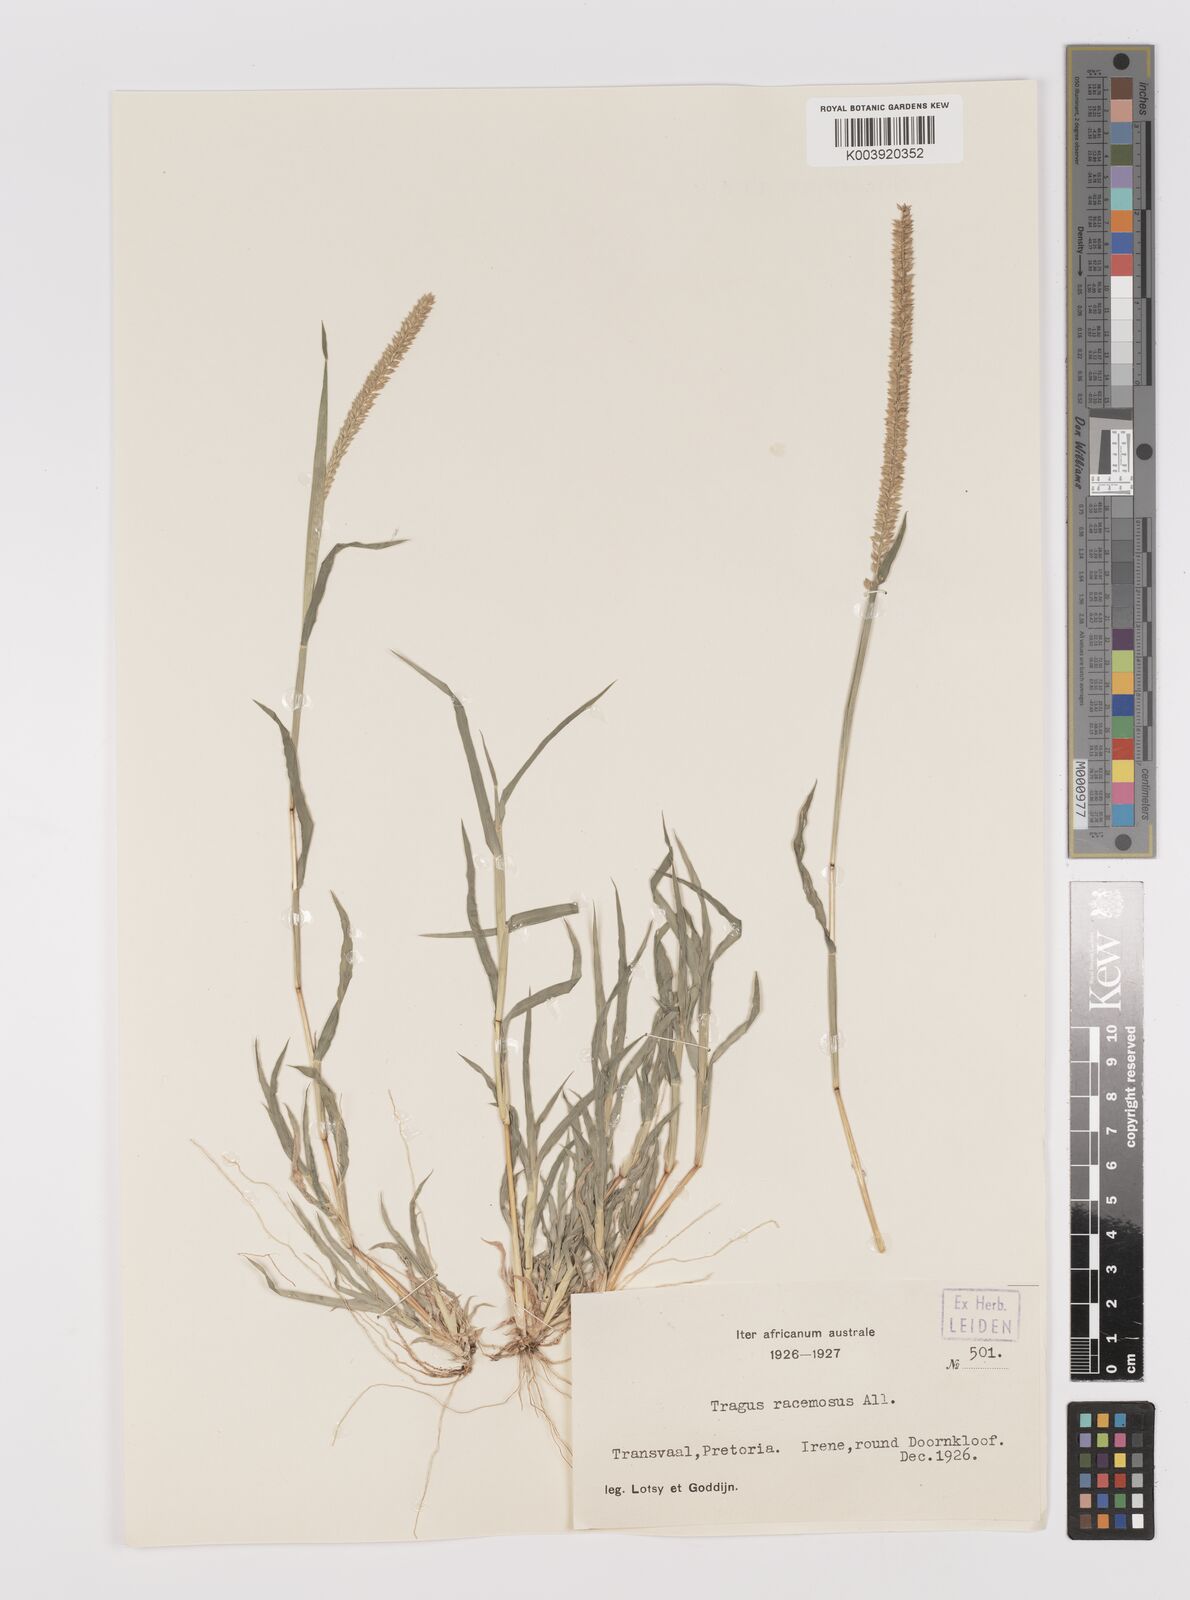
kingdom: Plantae
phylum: Tracheophyta
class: Liliopsida
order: Poales
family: Poaceae
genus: Tragus
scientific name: Tragus berteronianus
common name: African bur-grass
